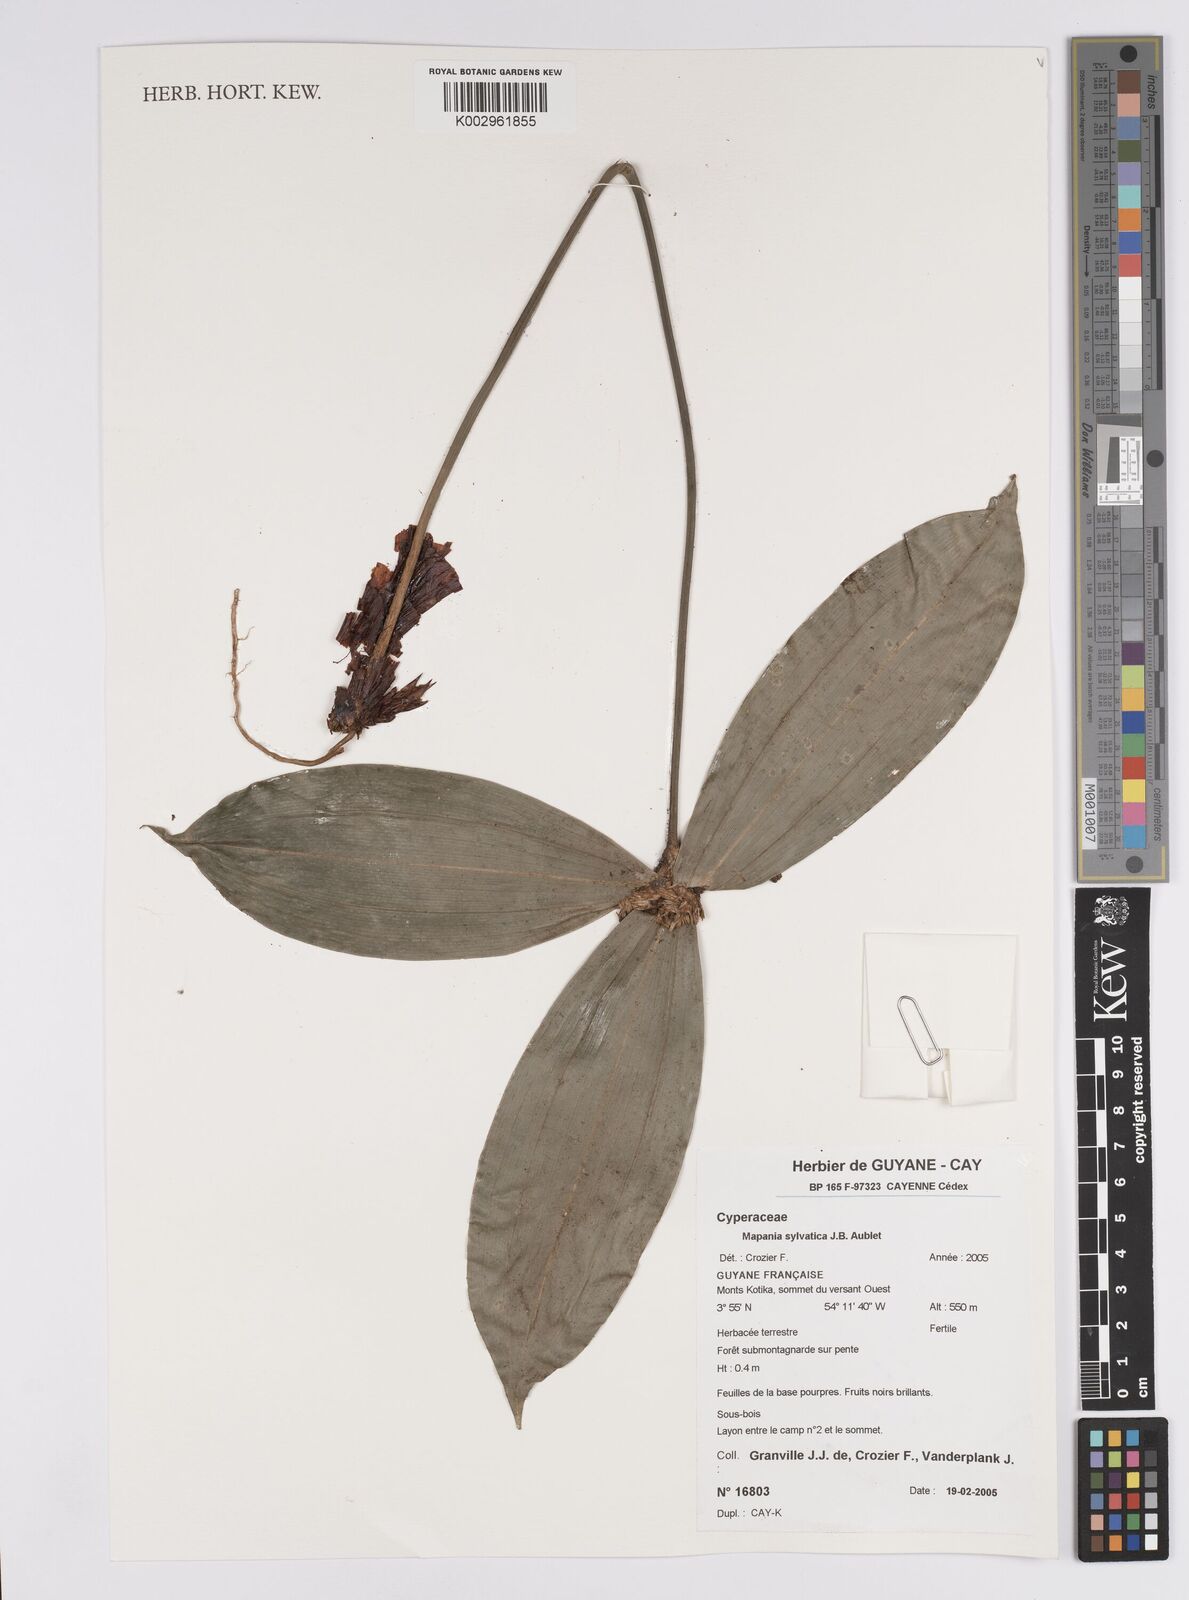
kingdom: Plantae
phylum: Tracheophyta
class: Liliopsida
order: Poales
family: Cyperaceae
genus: Mapania
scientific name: Mapania sylvatica
